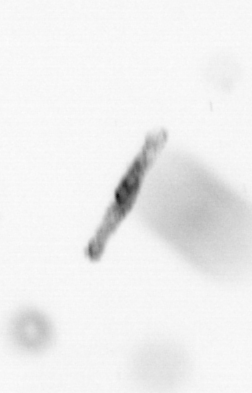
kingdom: Chromista
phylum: Ochrophyta
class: Bacillariophyceae
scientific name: Bacillariophyceae
